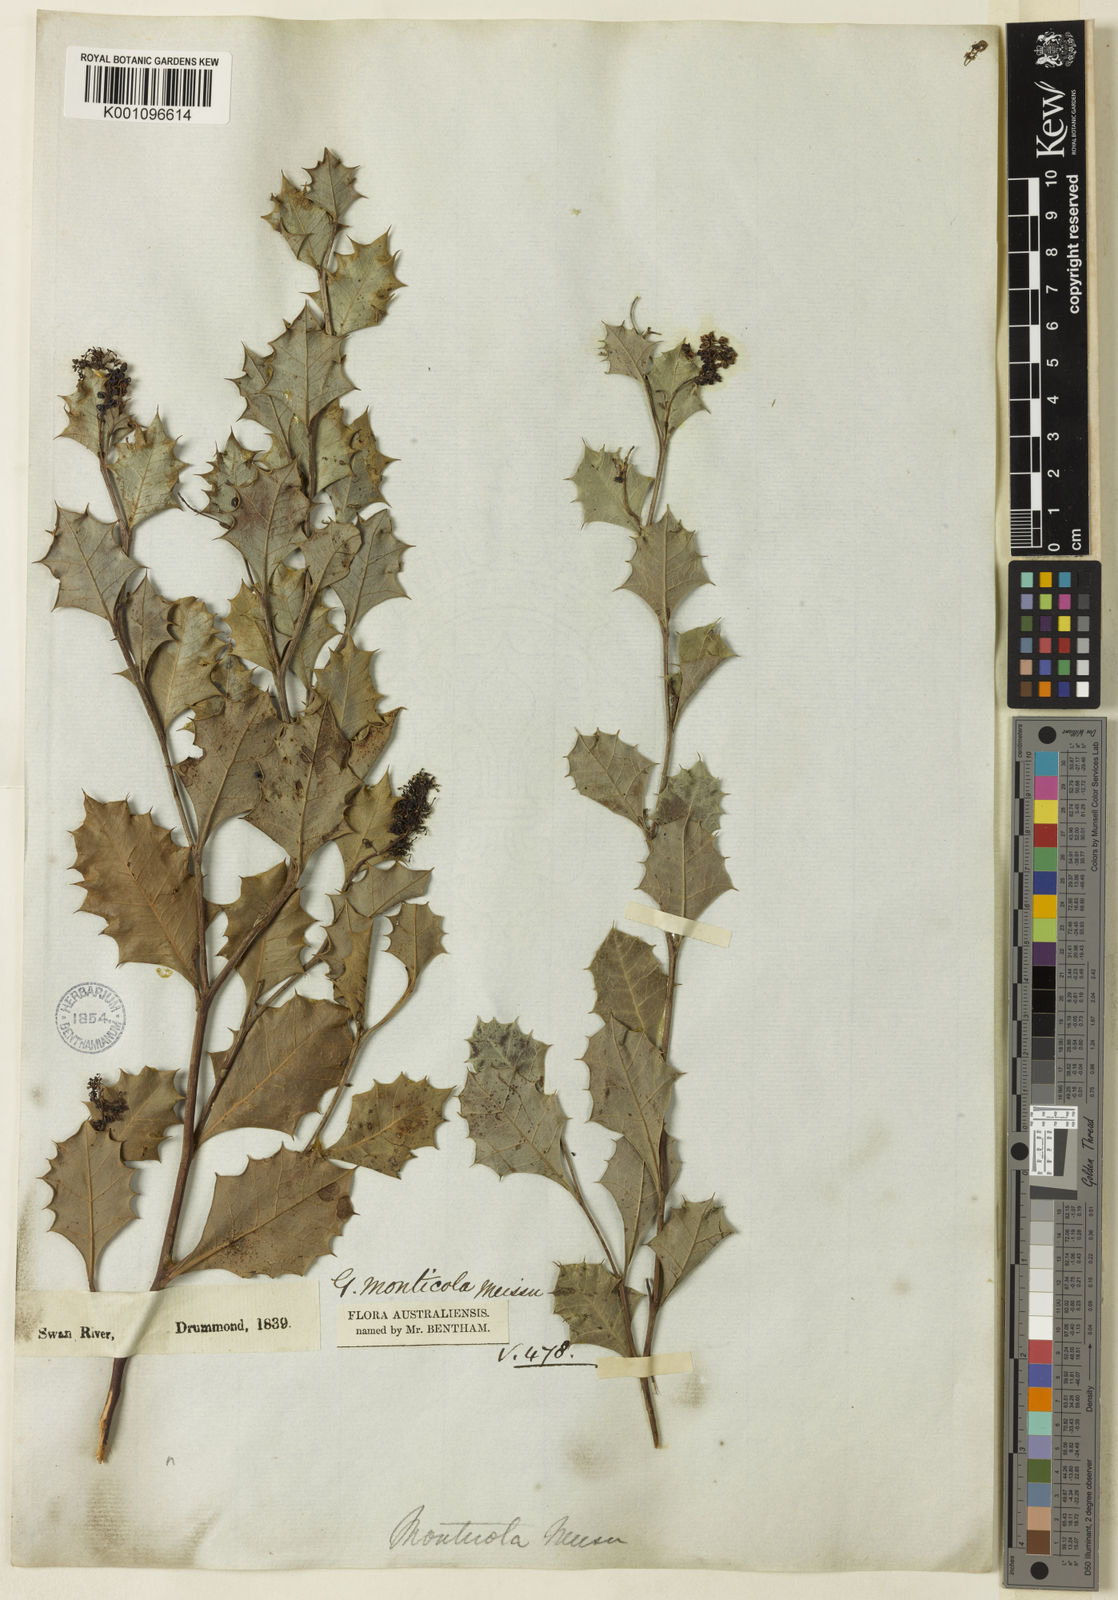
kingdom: Plantae
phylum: Tracheophyta
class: Magnoliopsida
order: Proteales
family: Proteaceae
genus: Grevillea
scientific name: Grevillea monticola
